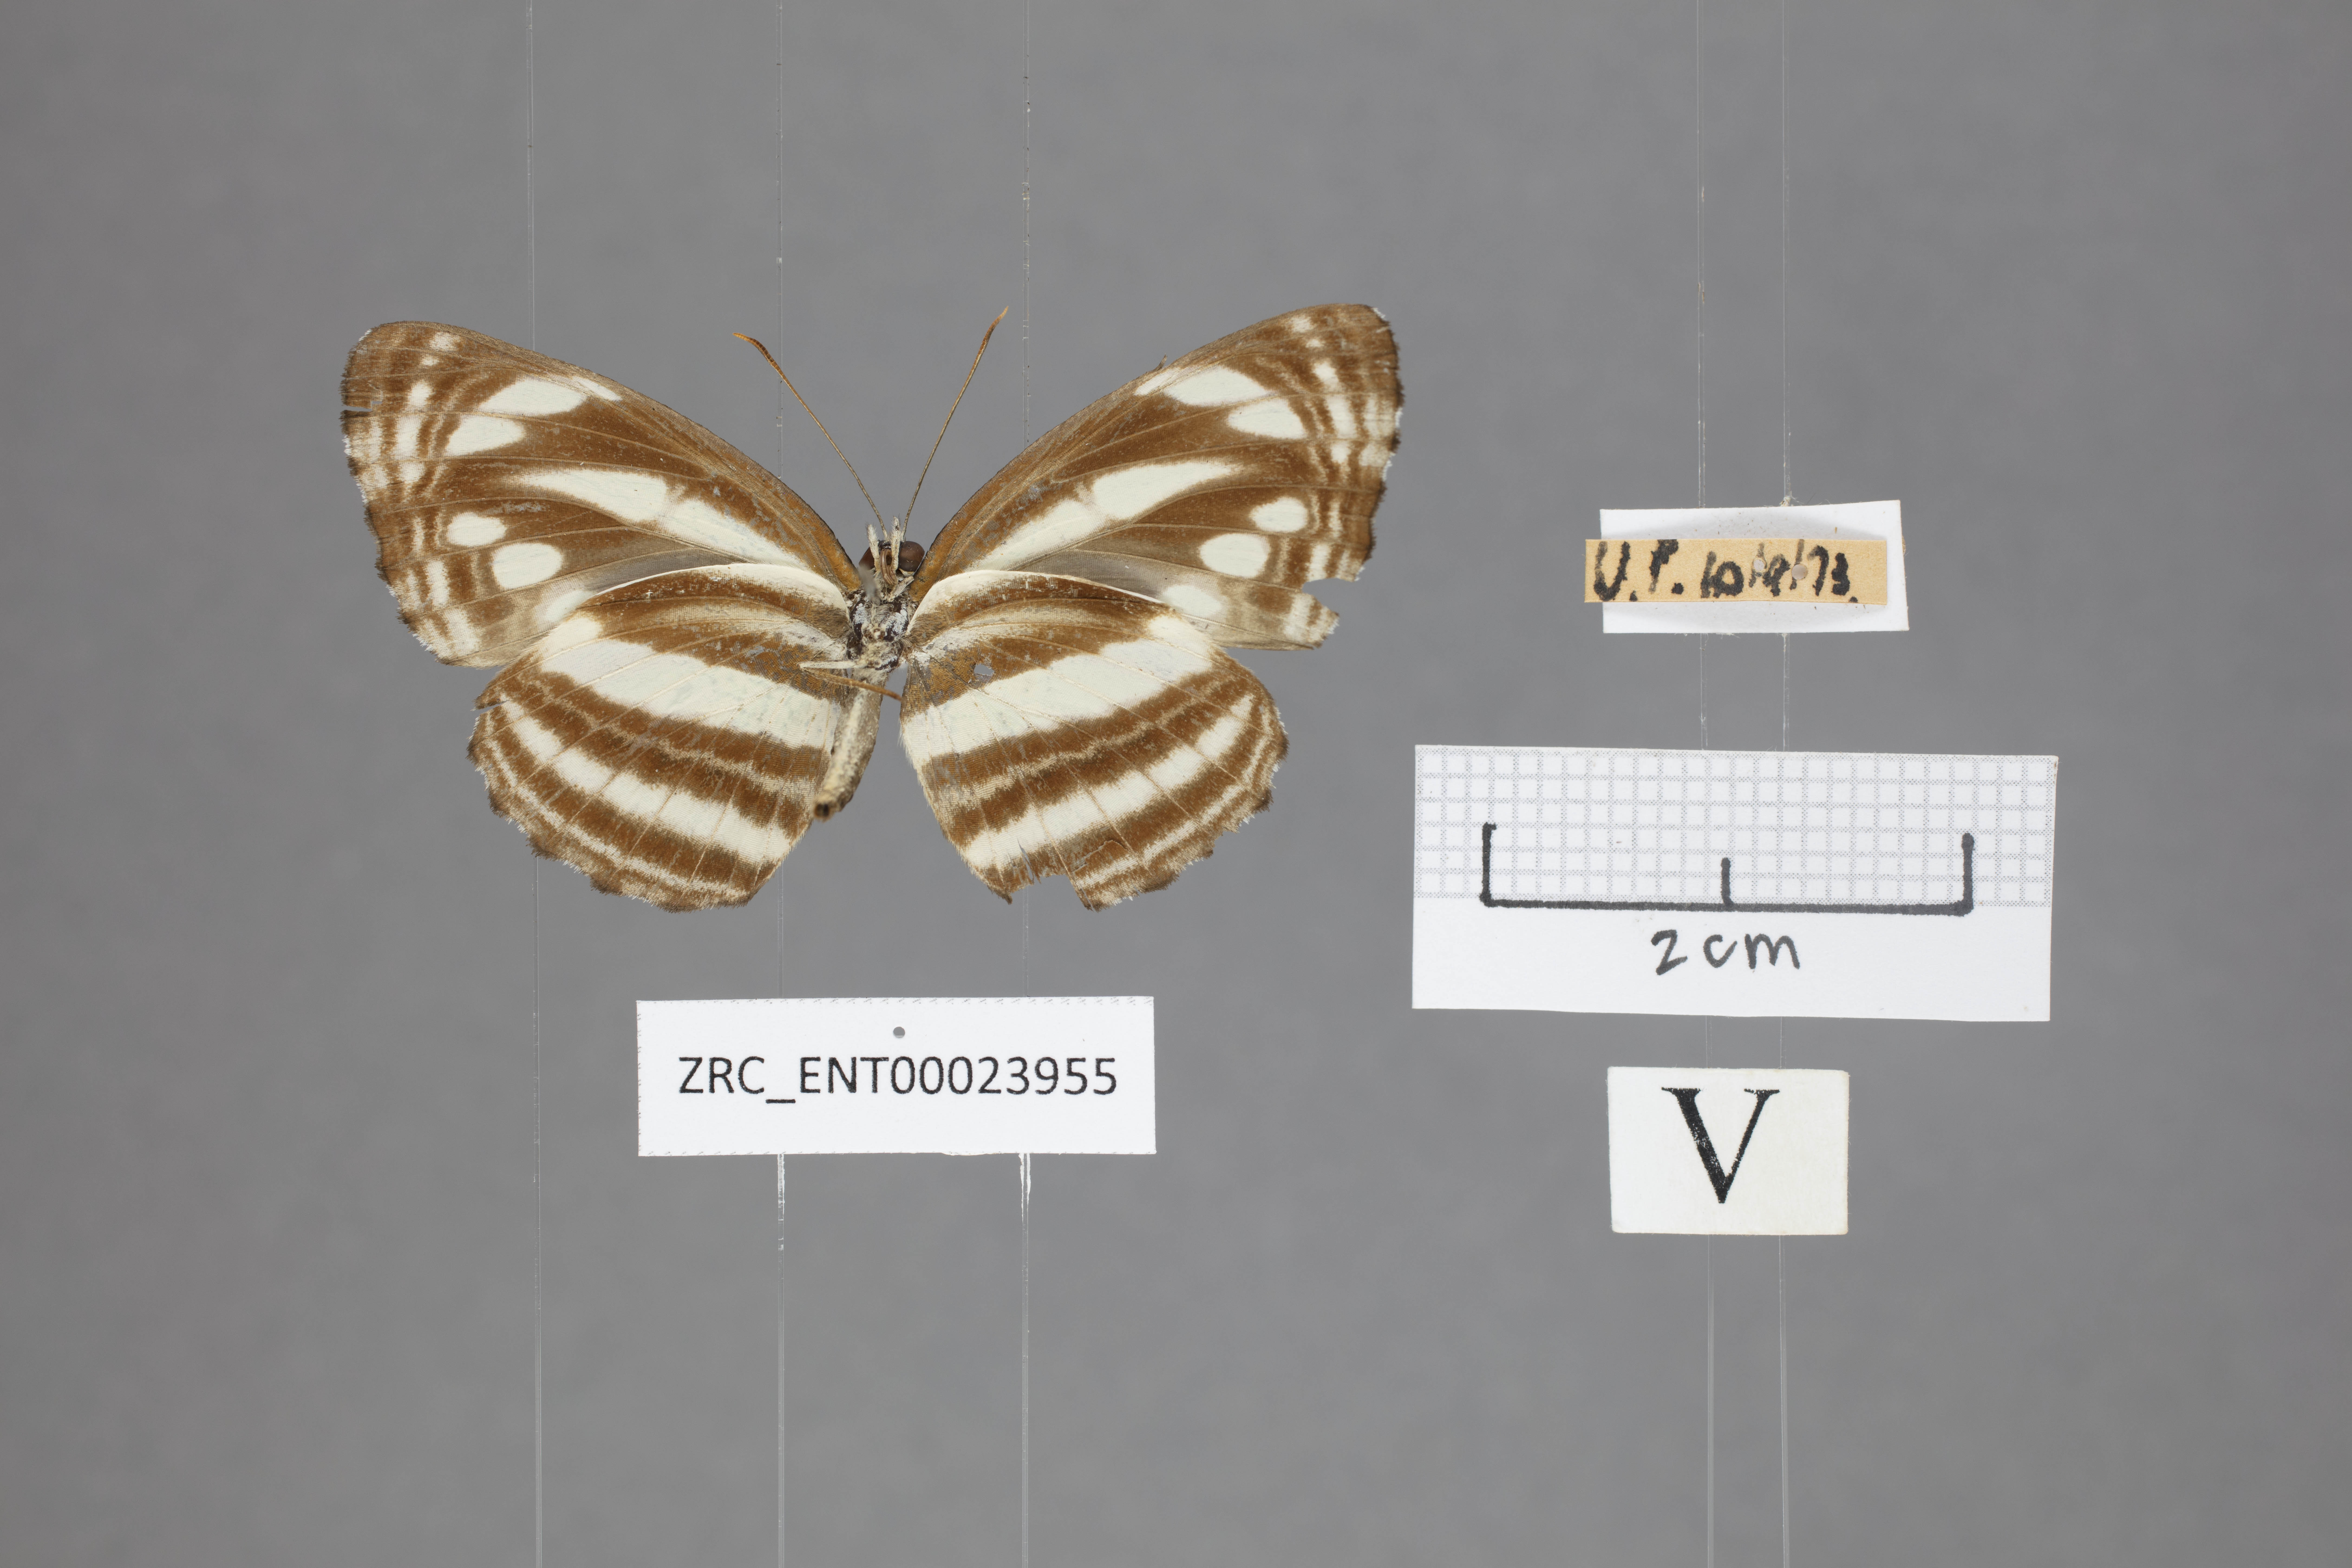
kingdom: Animalia
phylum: Arthropoda
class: Insecta
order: Lepidoptera
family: Nymphalidae
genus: Neptis
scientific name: Neptis clinia
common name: Southern sullied sailer
